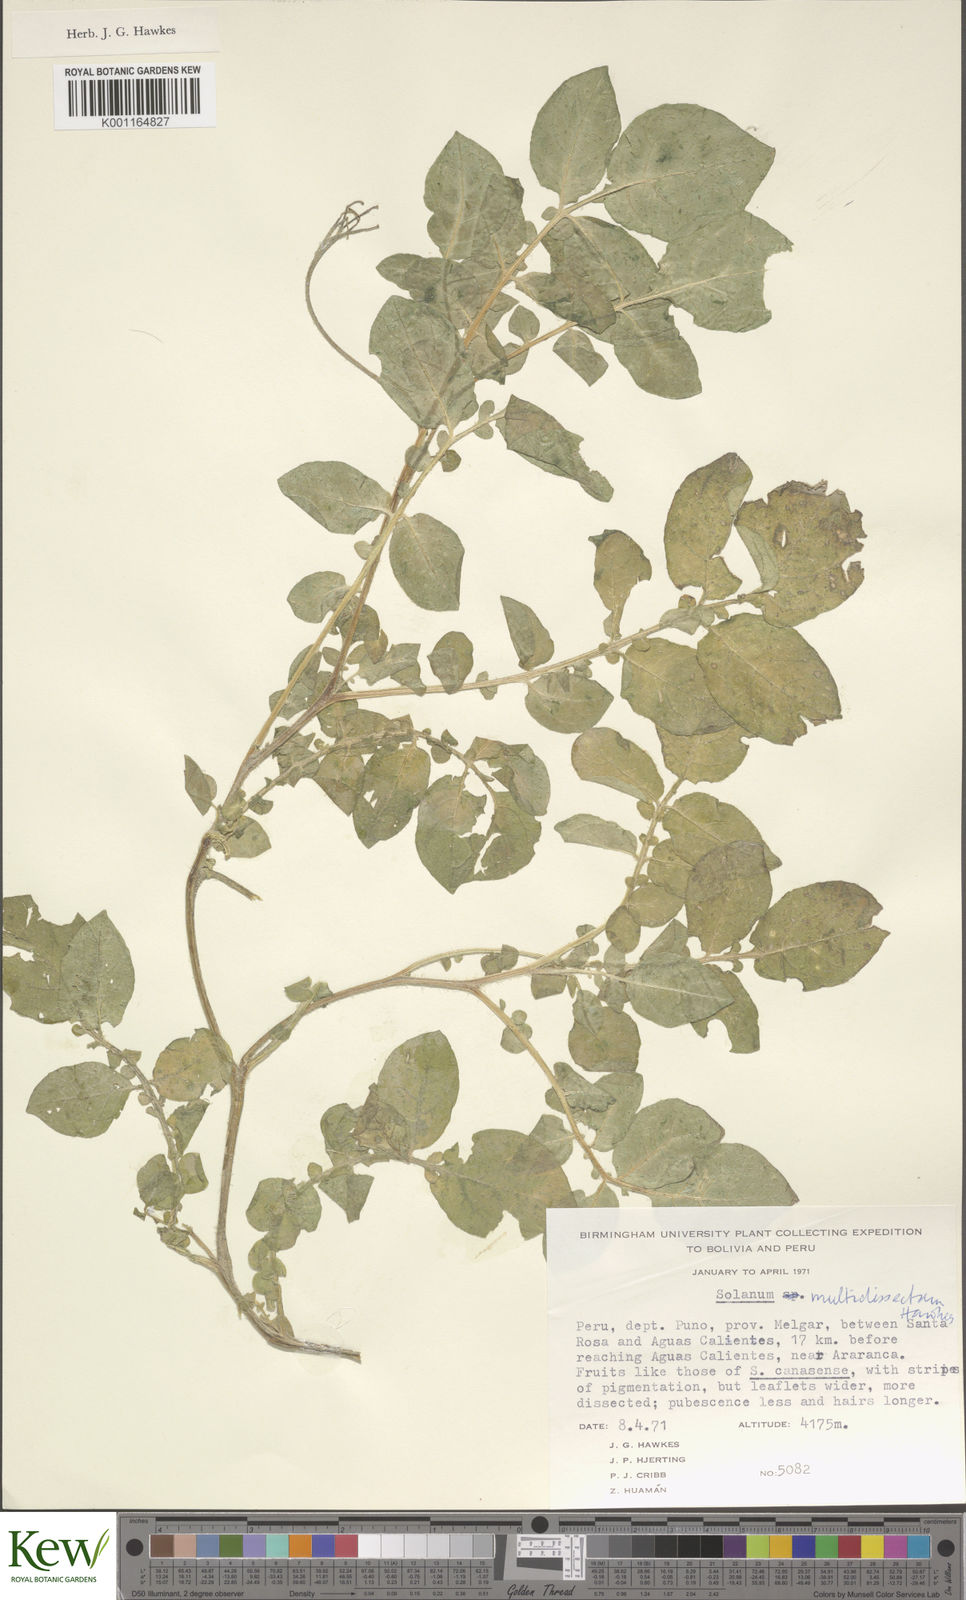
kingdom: Plantae
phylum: Tracheophyta
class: Magnoliopsida
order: Solanales
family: Solanaceae
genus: Solanum
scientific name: Solanum candolleanum
